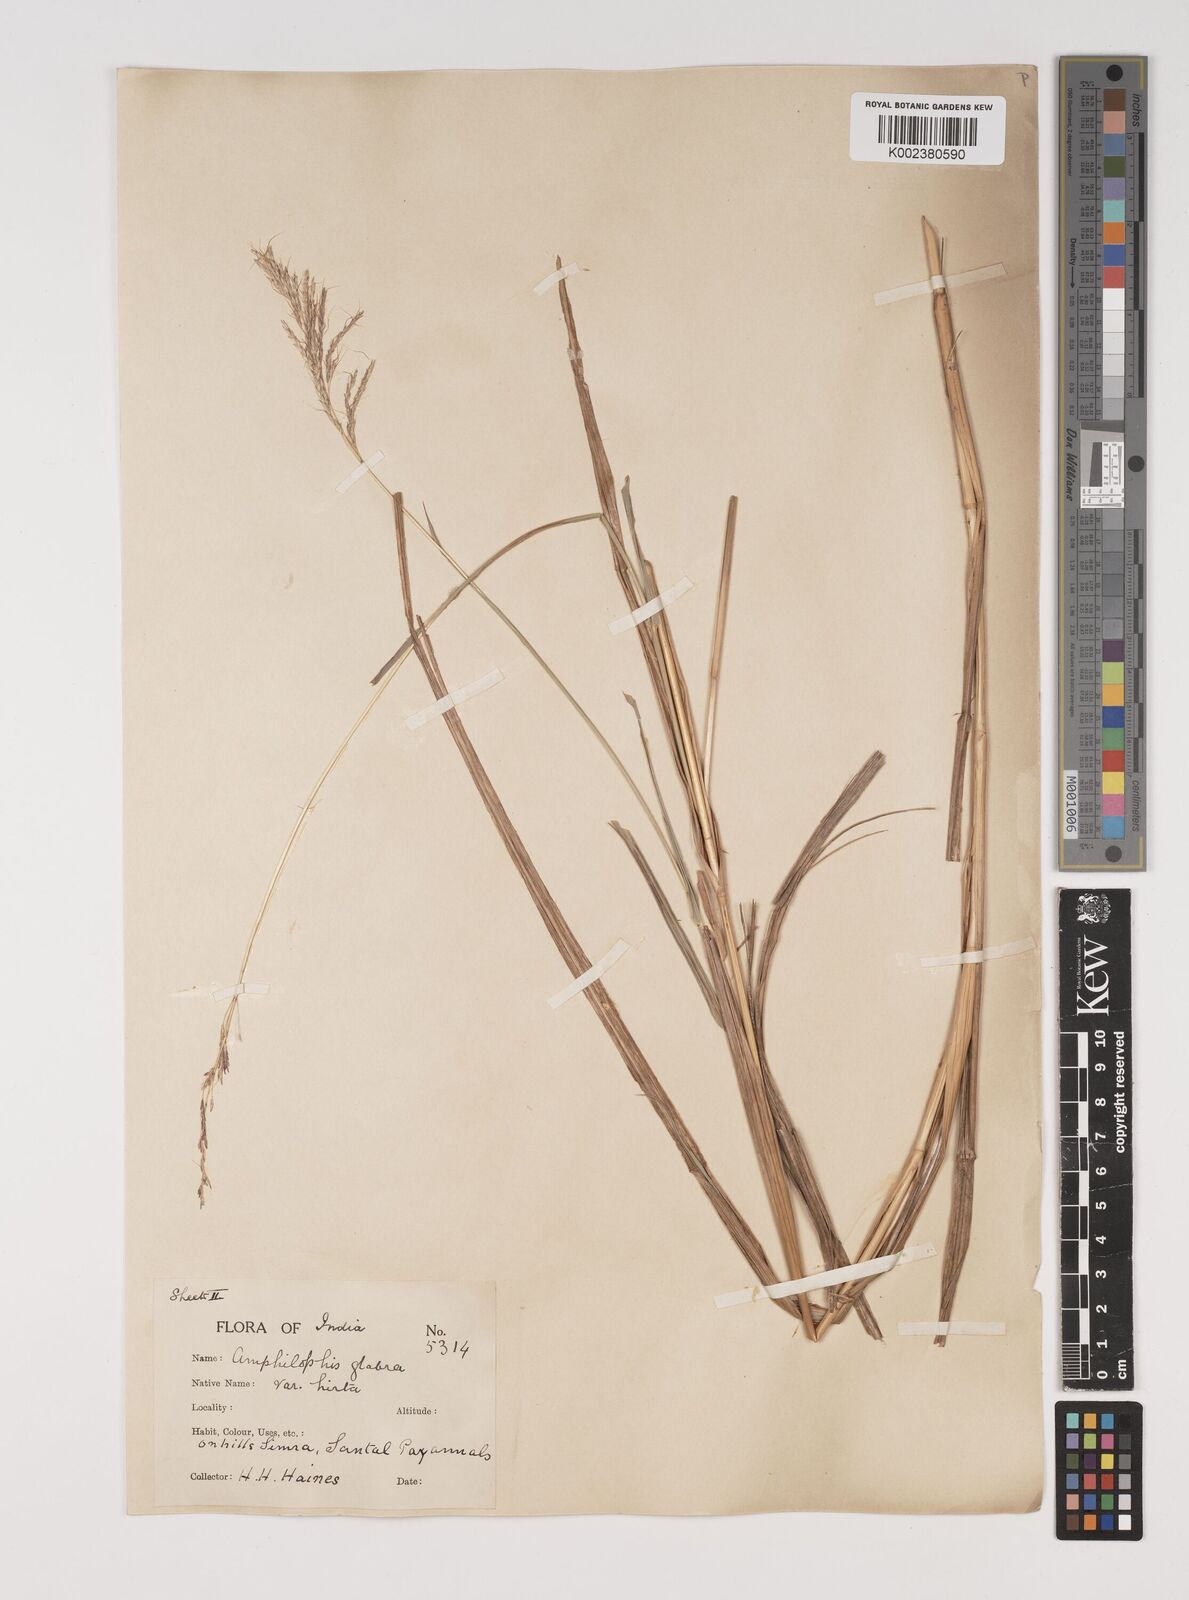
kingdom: Plantae
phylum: Tracheophyta
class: Liliopsida
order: Poales
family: Poaceae
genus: Bothriochloa
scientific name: Bothriochloa bladhii
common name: Caucasian bluestem
